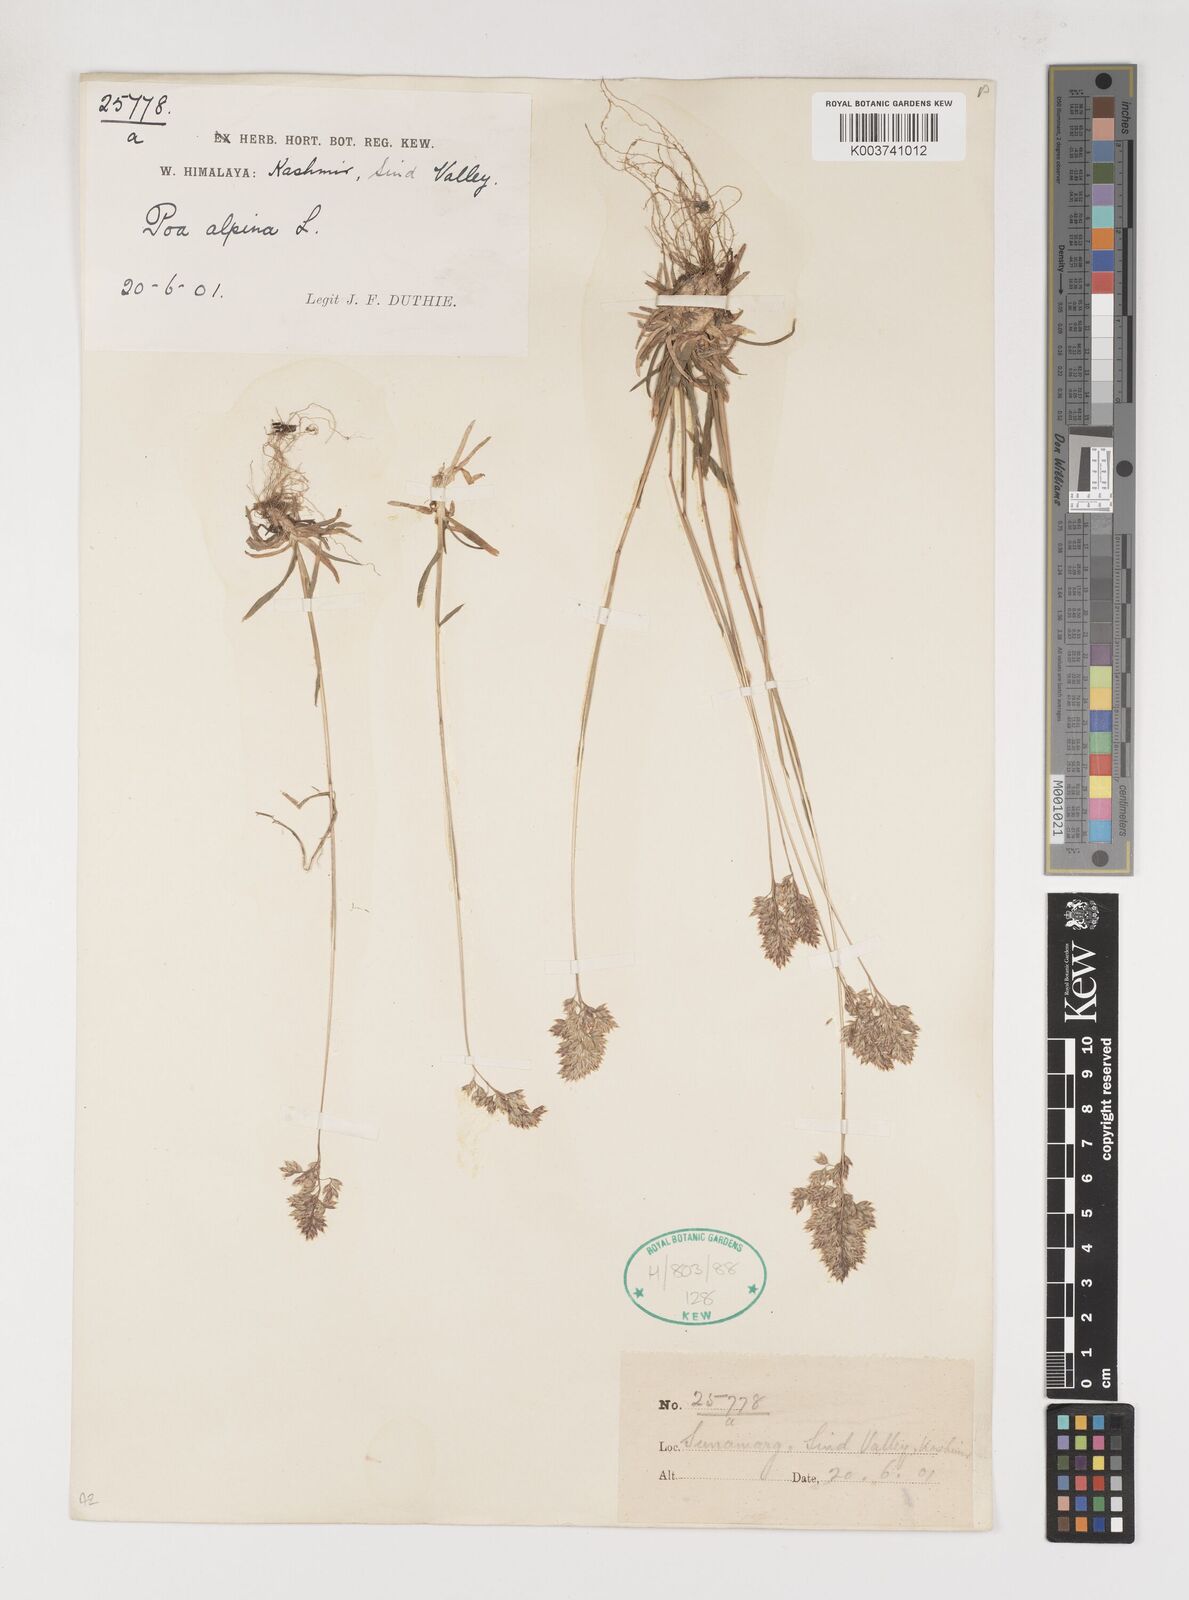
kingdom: Plantae
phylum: Tracheophyta
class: Liliopsida
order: Poales
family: Poaceae
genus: Poa
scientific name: Poa alpina
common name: Alpine bluegrass
